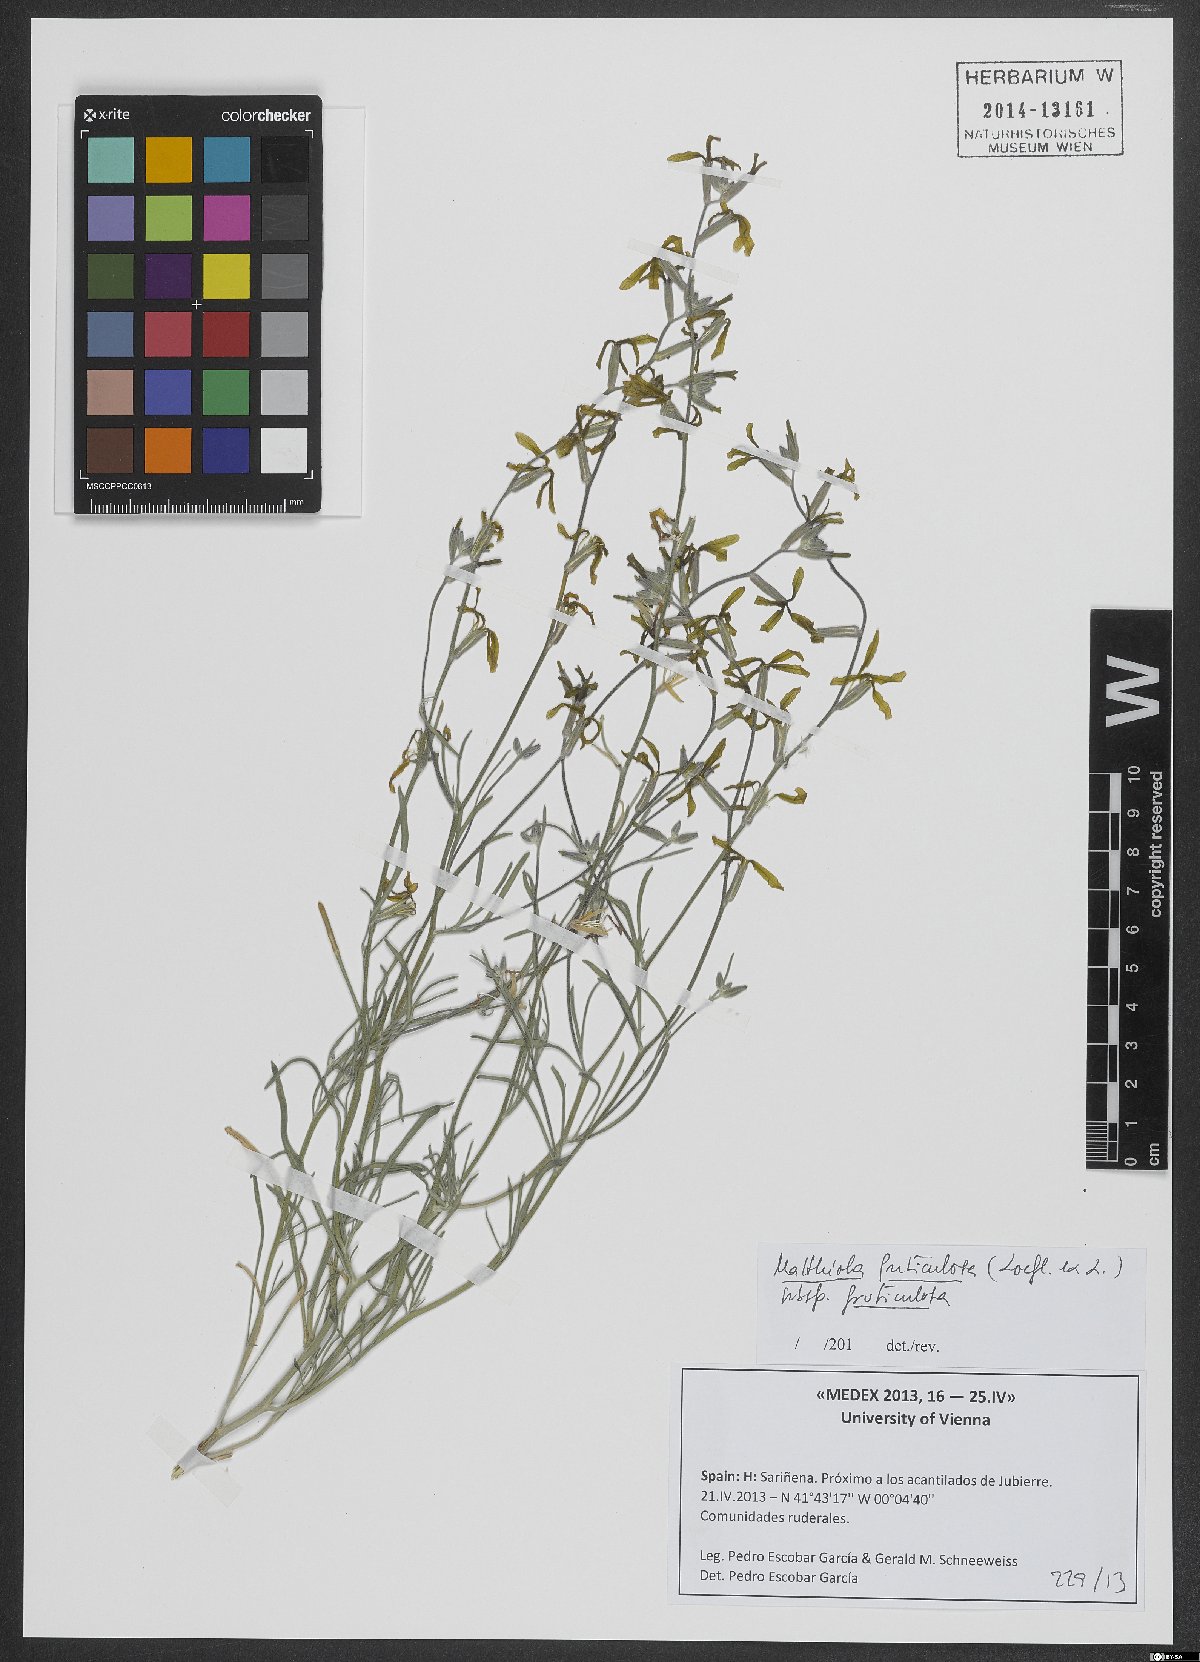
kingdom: Plantae
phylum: Tracheophyta
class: Magnoliopsida
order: Brassicales
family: Brassicaceae
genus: Matthiola
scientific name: Matthiola fruticulosa
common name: Sad stock
